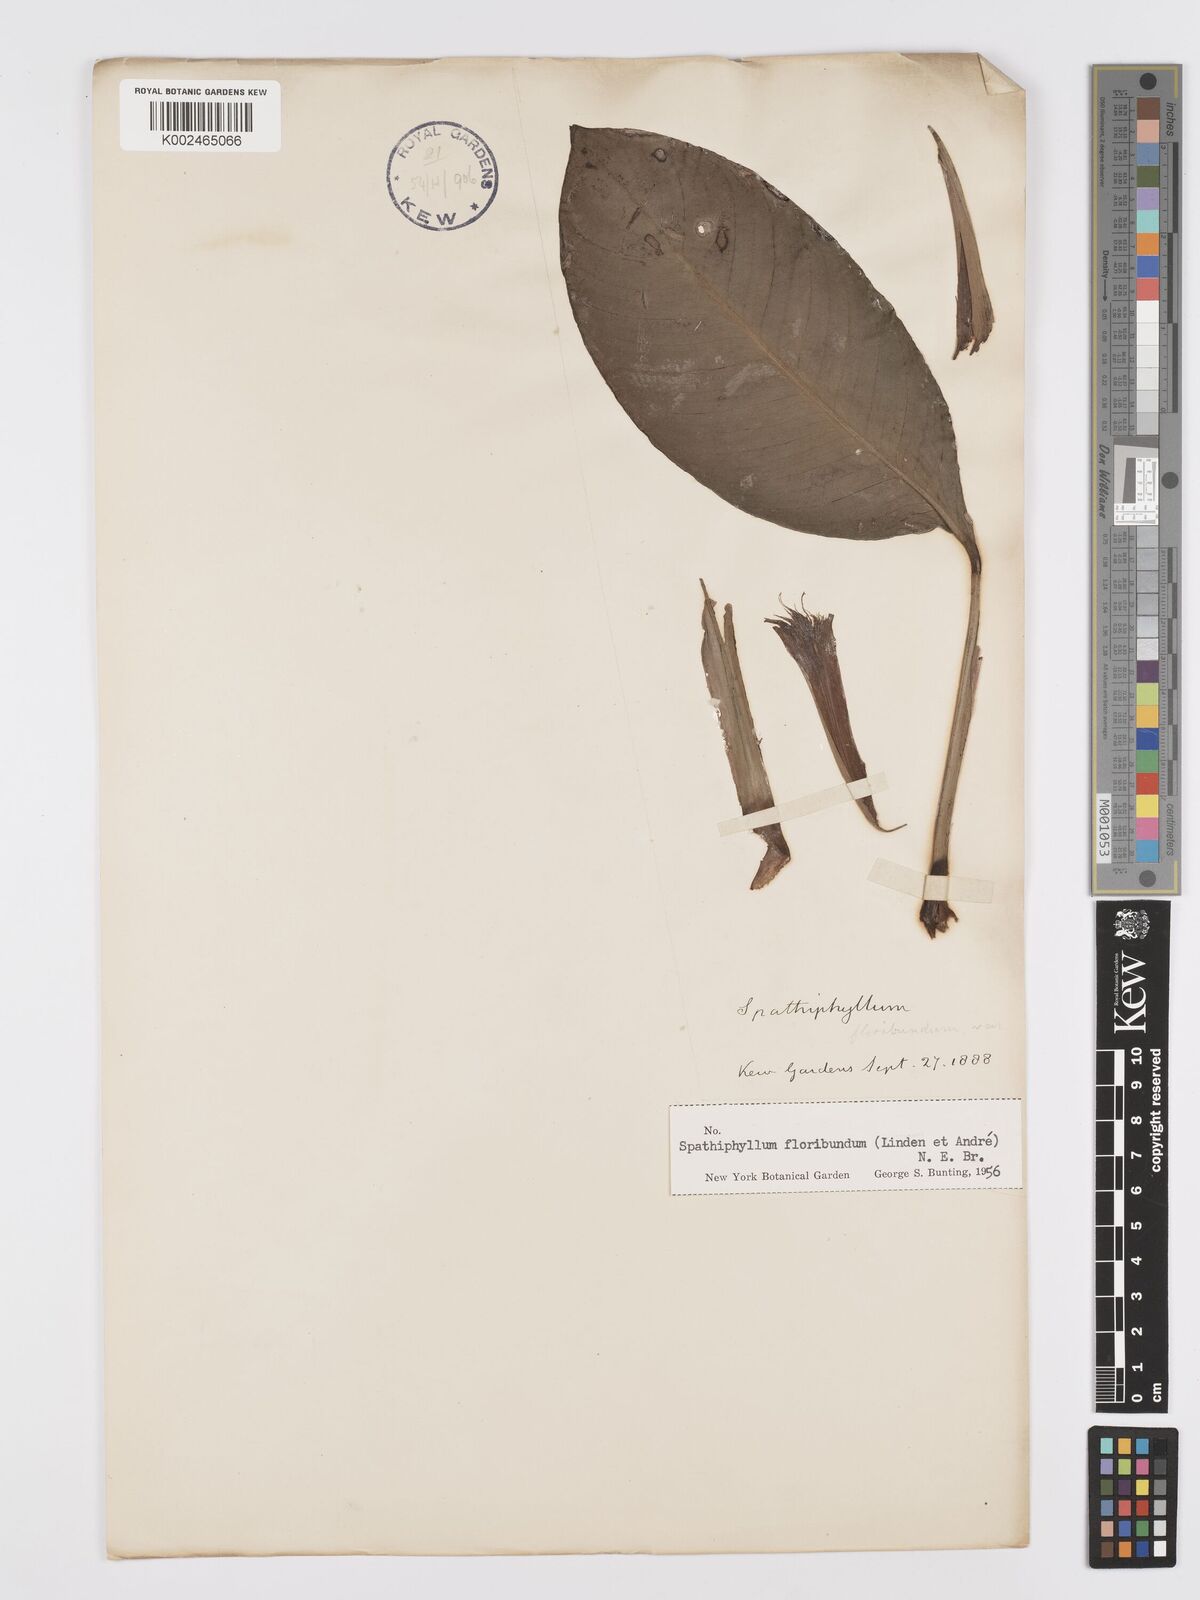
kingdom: Plantae
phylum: Tracheophyta
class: Liliopsida
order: Alismatales
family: Araceae
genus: Spathiphyllum
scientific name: Spathiphyllum floribundum
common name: Peace-lily
